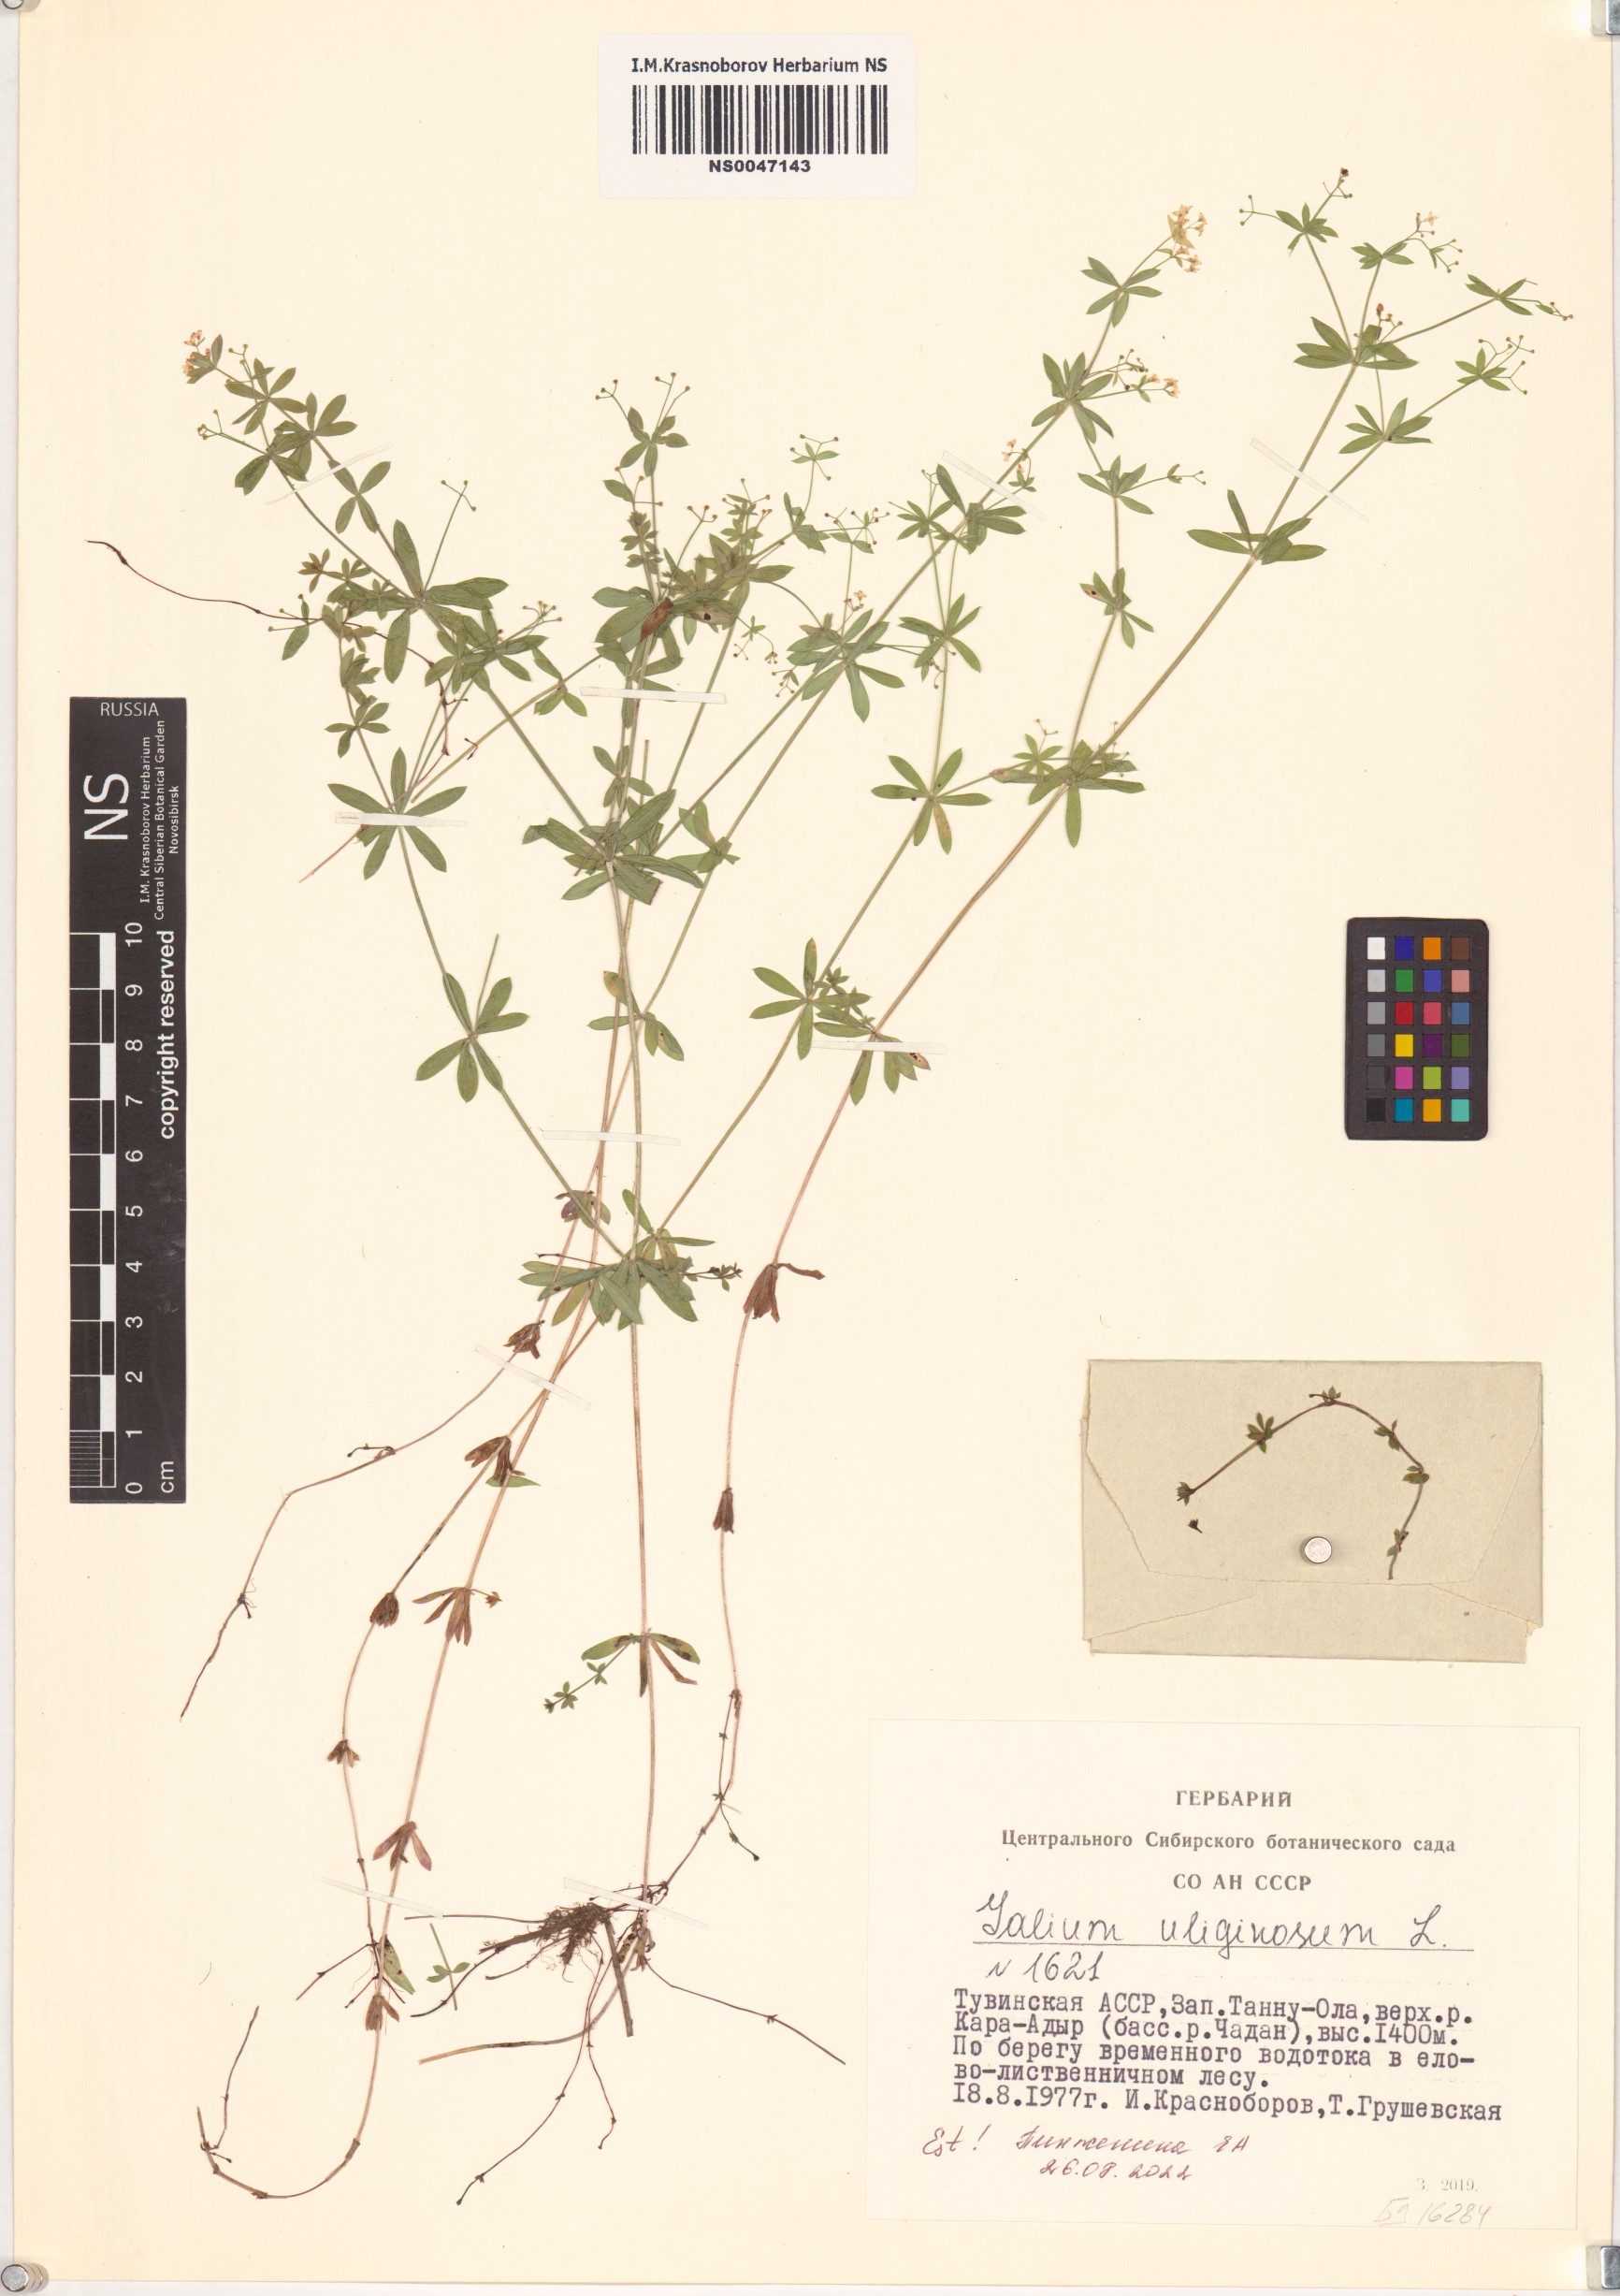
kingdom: Plantae
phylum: Tracheophyta
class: Magnoliopsida
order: Gentianales
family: Rubiaceae
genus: Galium
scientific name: Galium uliginosum
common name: Fen bedstraw
